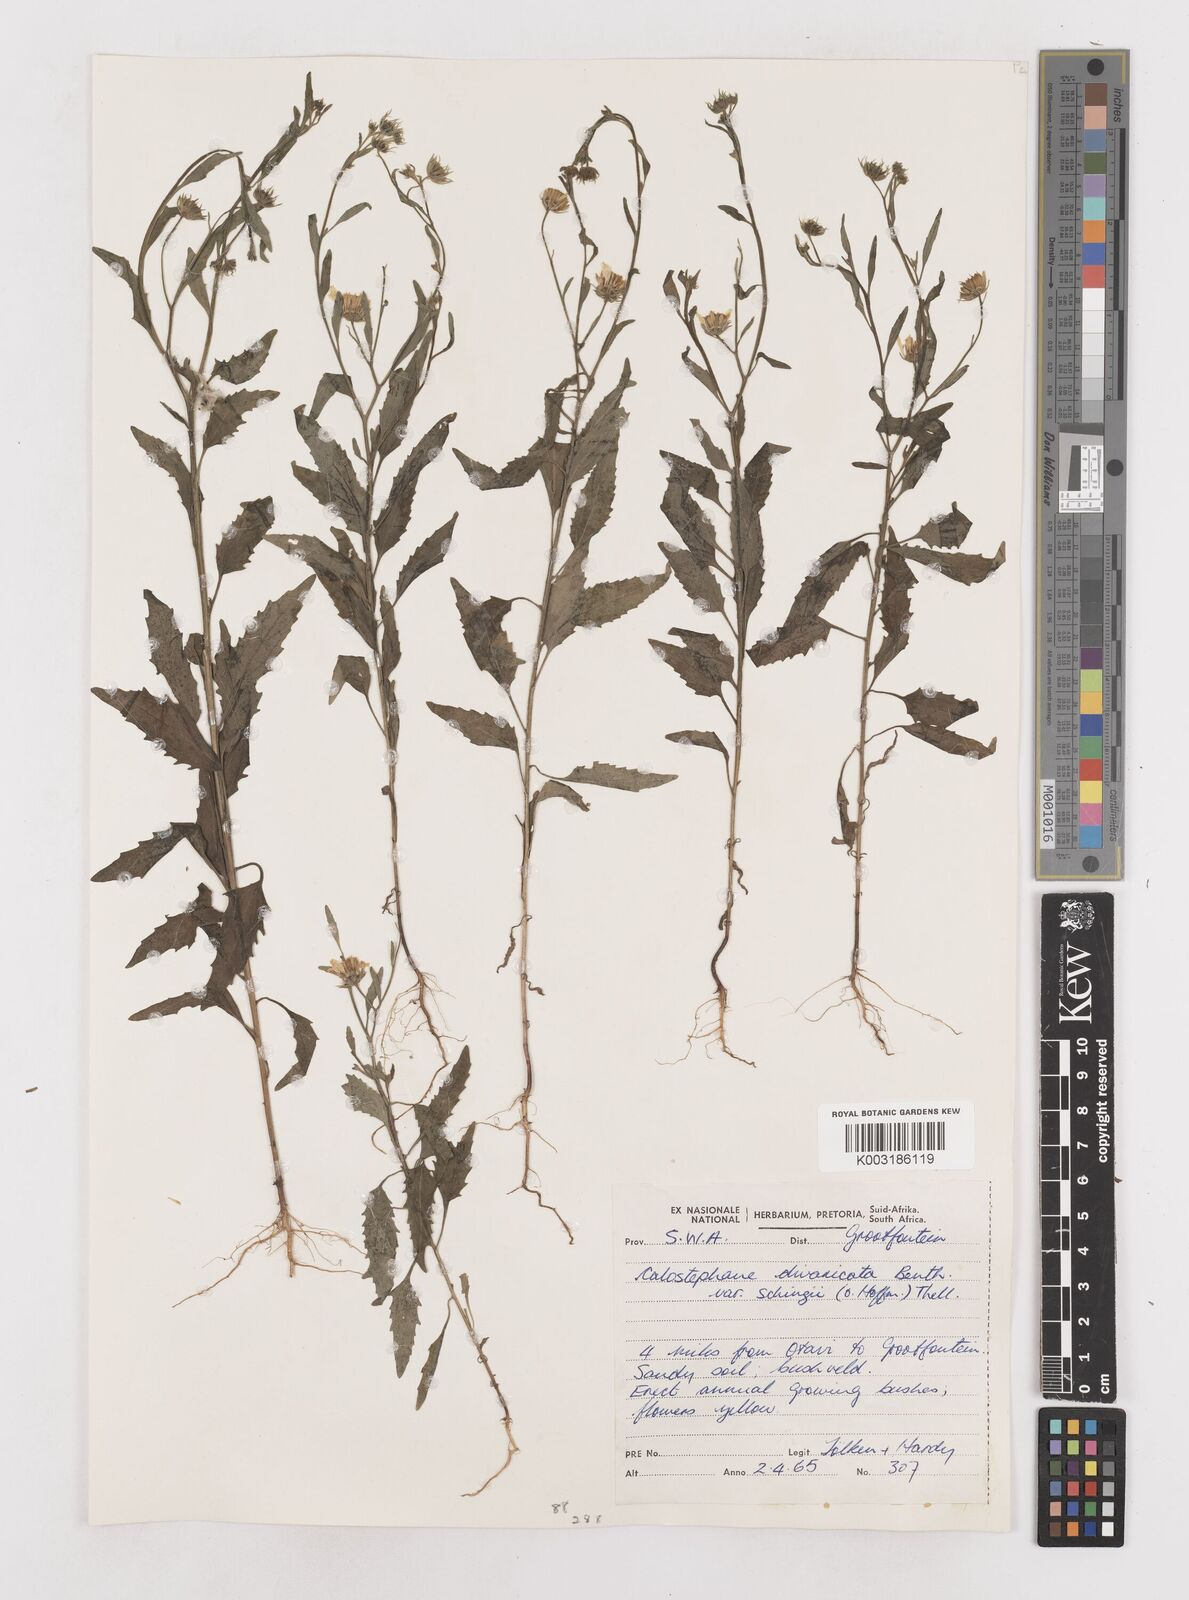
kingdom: Plantae
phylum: Tracheophyta
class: Magnoliopsida
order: Asterales
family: Asteraceae
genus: Calostephane
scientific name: Calostephane divaricata
